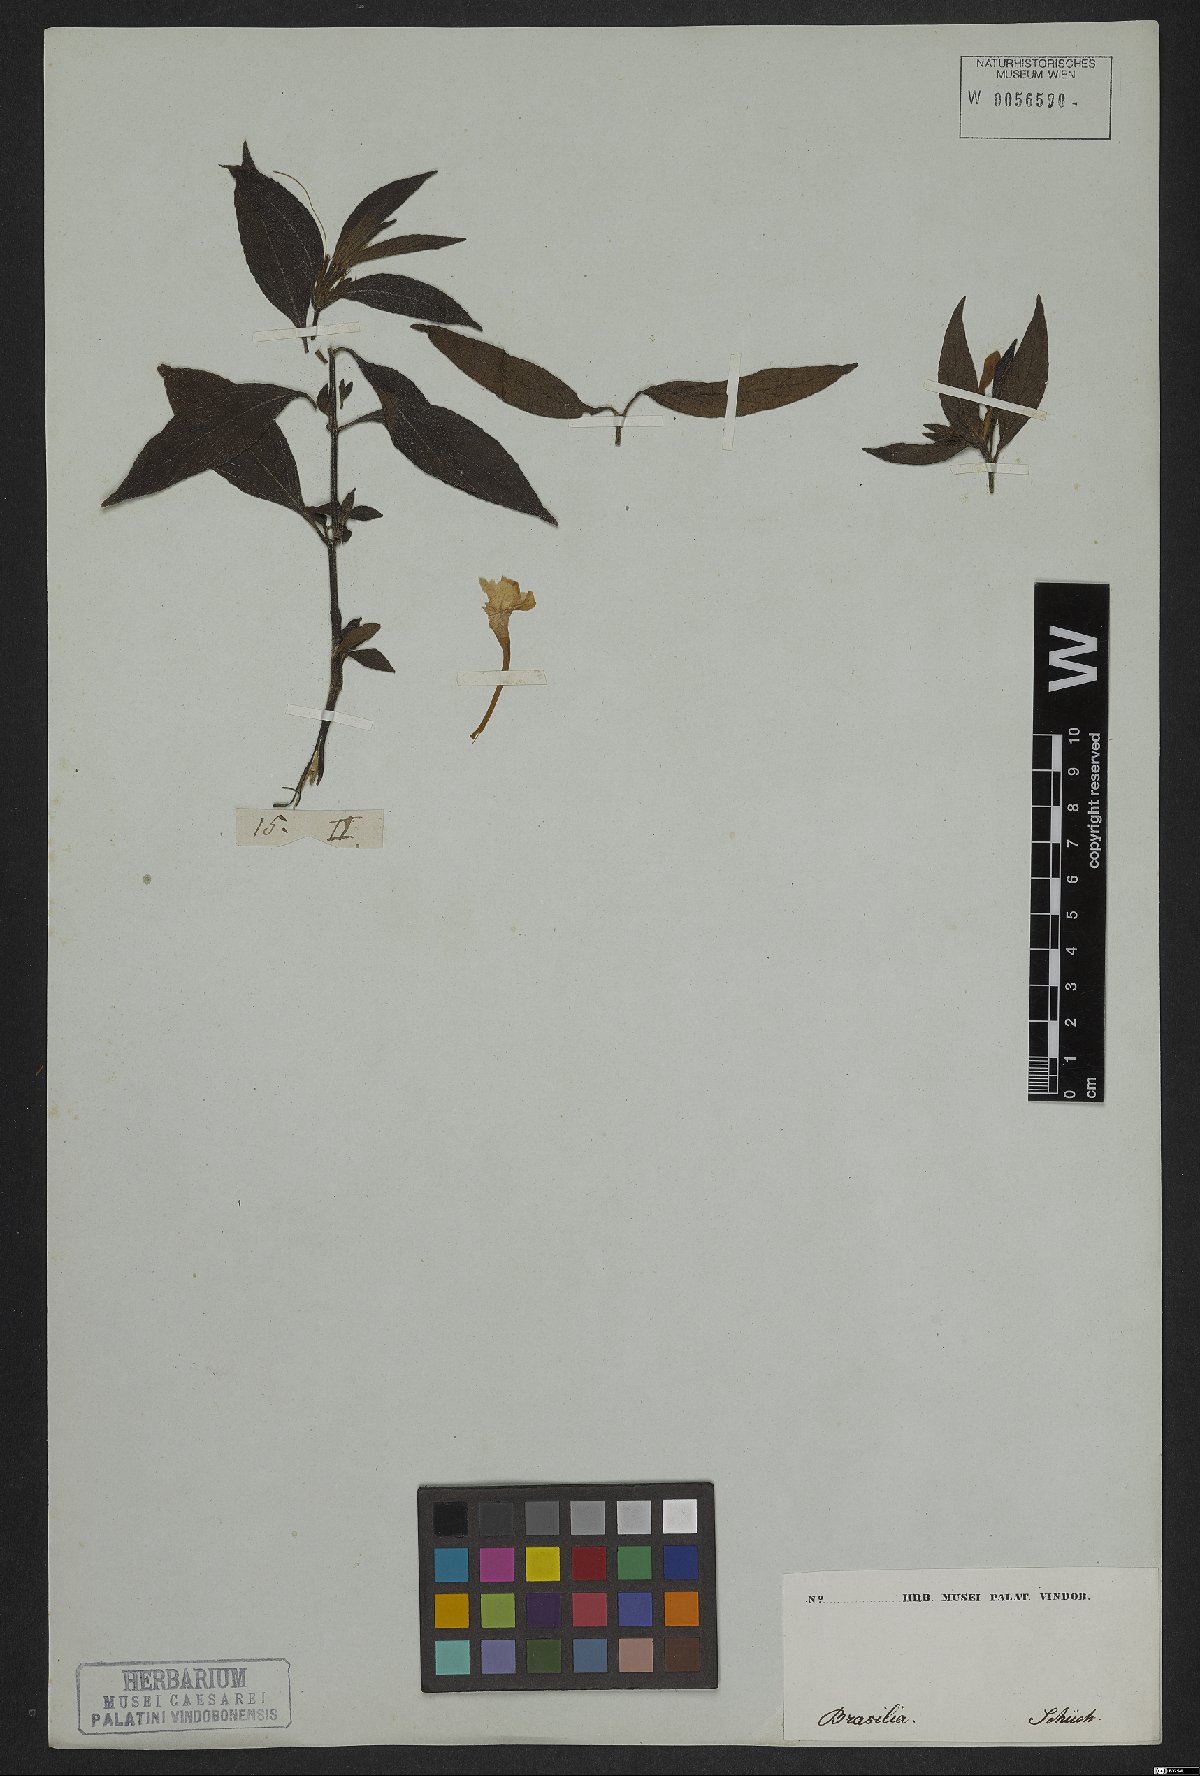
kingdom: Plantae
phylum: Tracheophyta
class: Magnoliopsida
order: Lamiales
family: Acanthaceae
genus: Ruellia
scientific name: Ruellia purii
